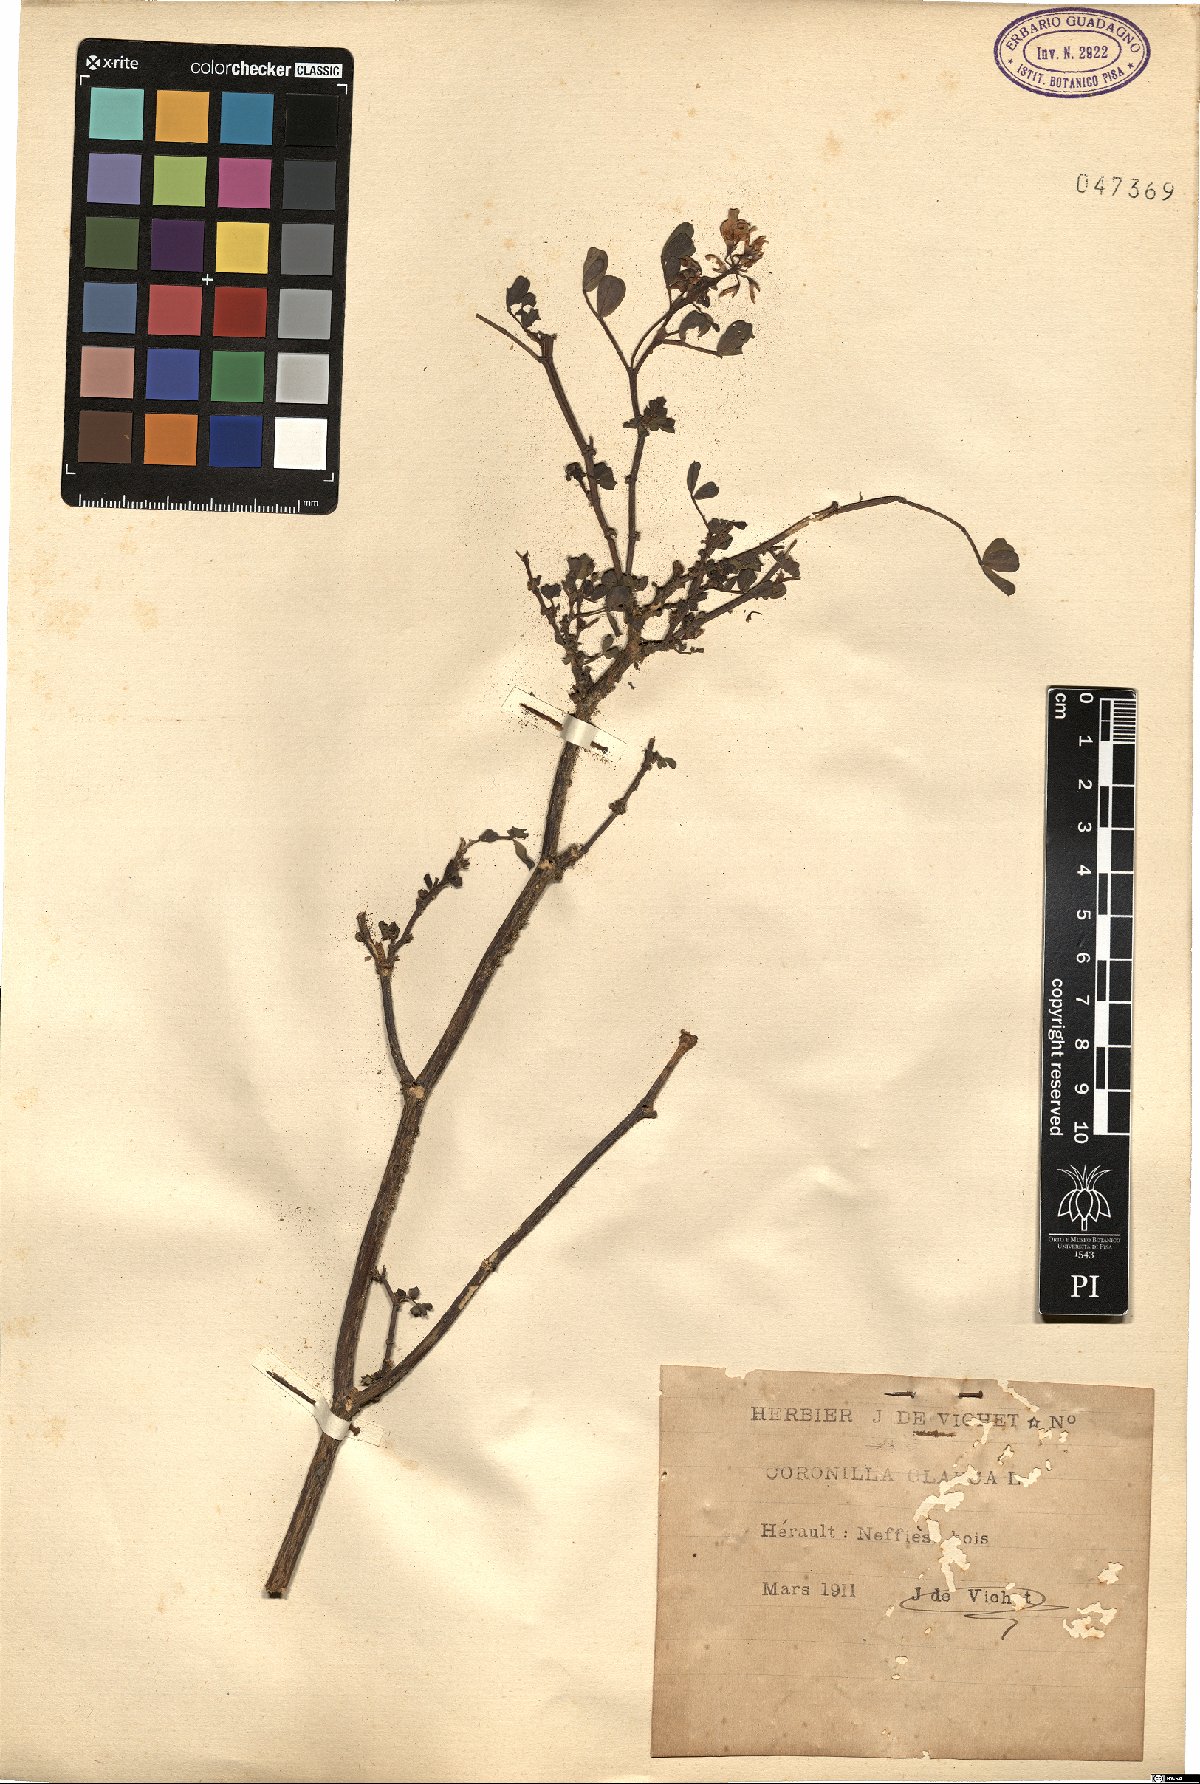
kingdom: Plantae
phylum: Tracheophyta
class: Magnoliopsida
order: Fabales
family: Fabaceae
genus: Coronilla
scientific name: Coronilla valentina
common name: Shrubby scorpion-vetch
